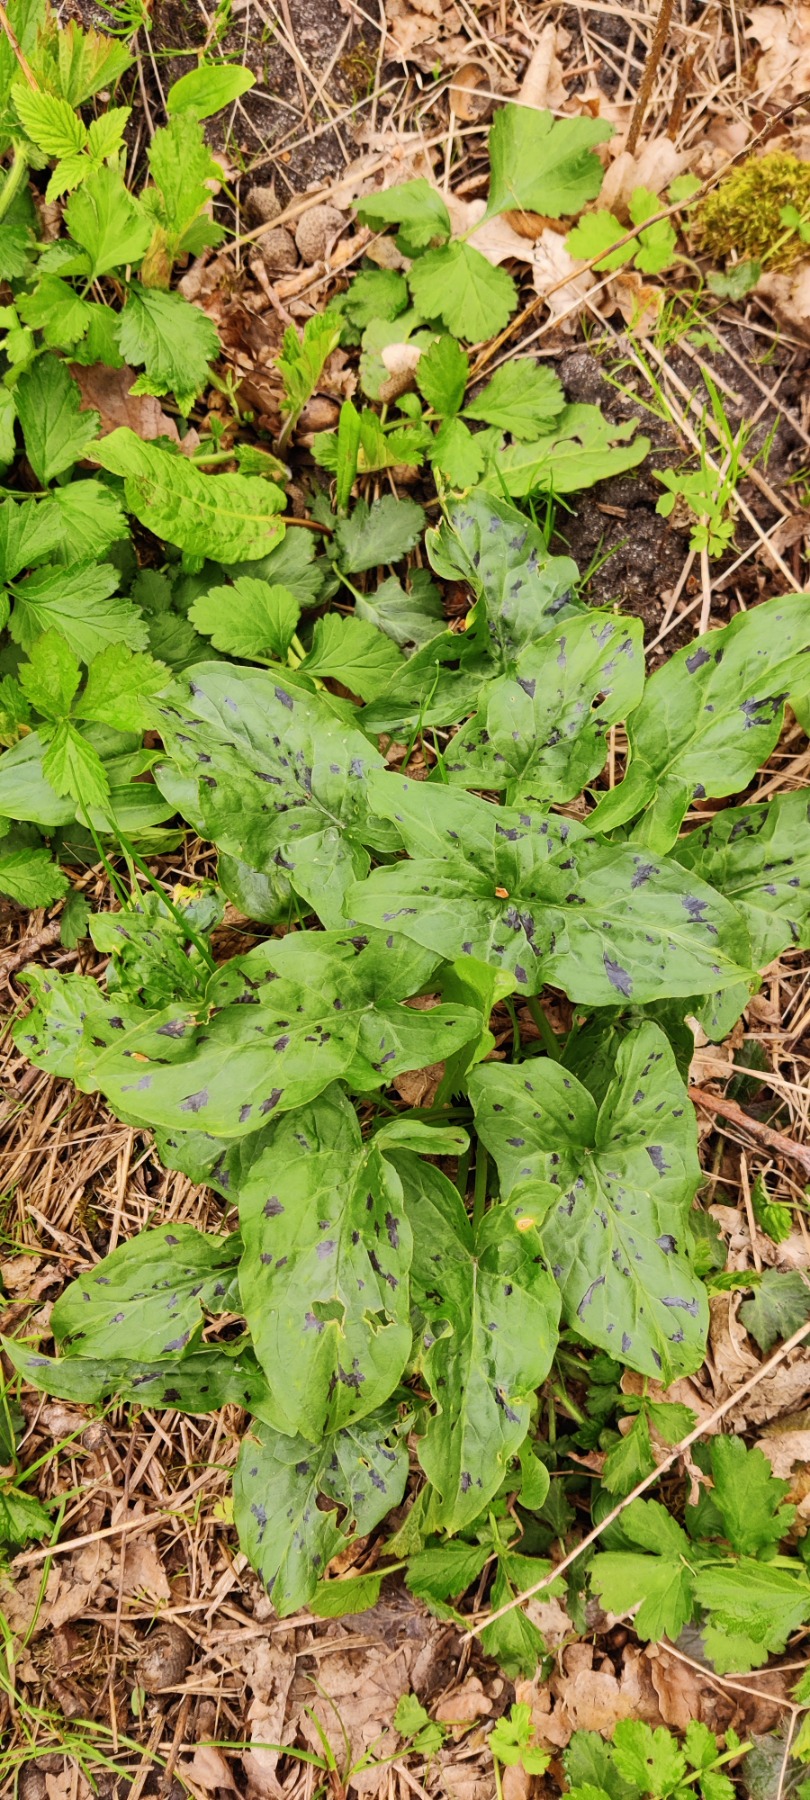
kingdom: Plantae
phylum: Tracheophyta
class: Liliopsida
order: Alismatales
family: Araceae
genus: Arum
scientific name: Arum maculatum
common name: Plettet arum
